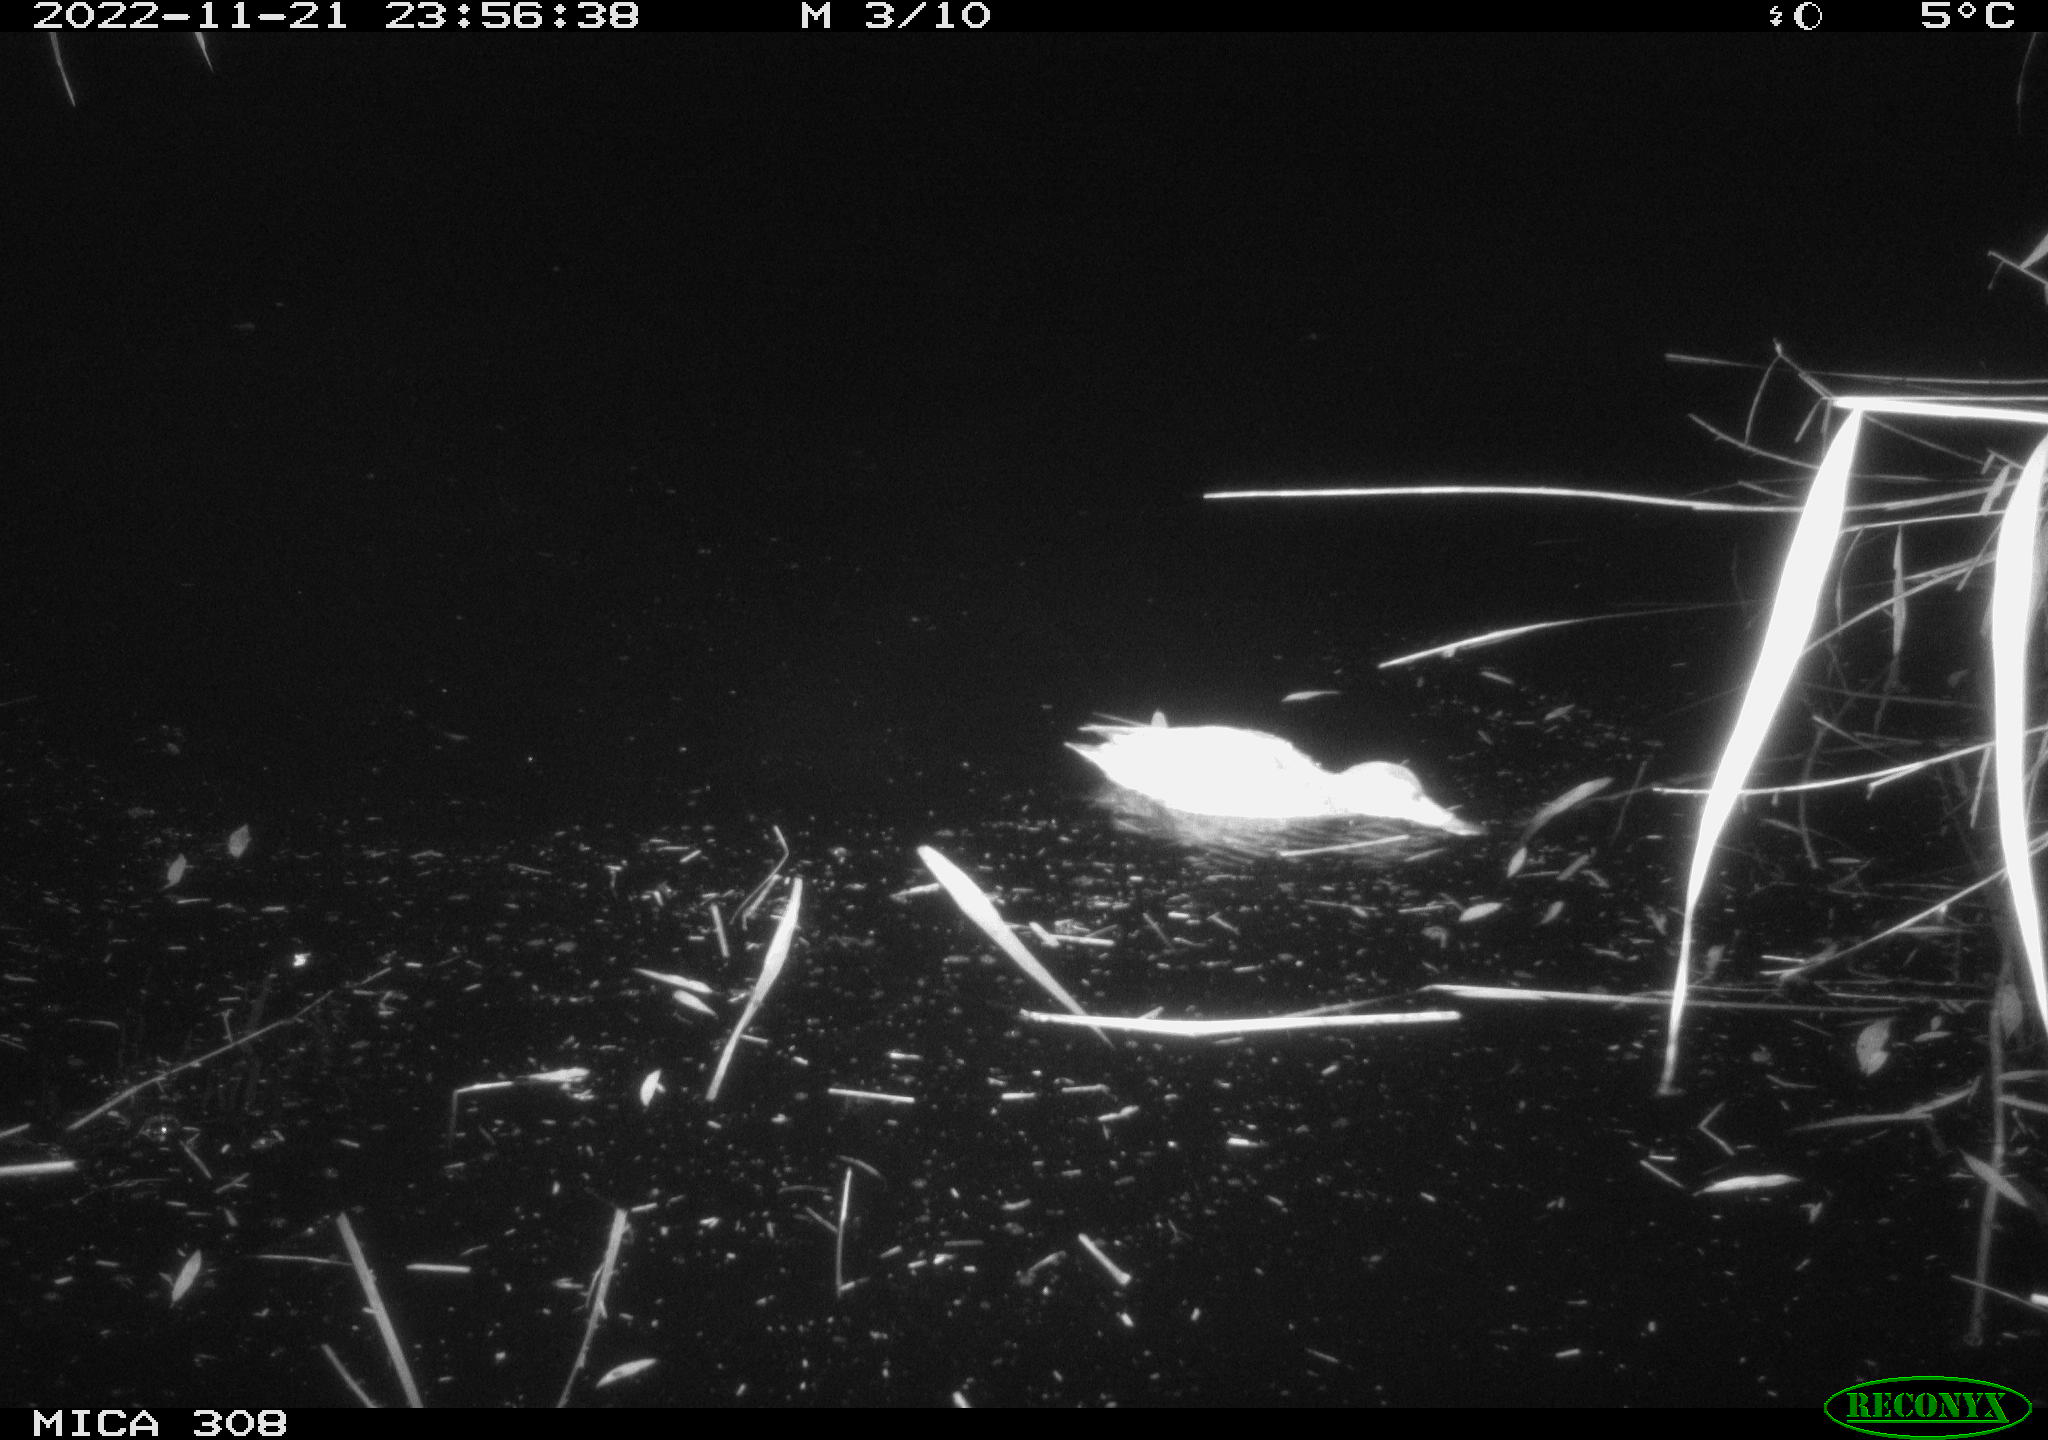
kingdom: Animalia
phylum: Chordata
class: Aves
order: Anseriformes
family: Anatidae
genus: Anas
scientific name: Anas
